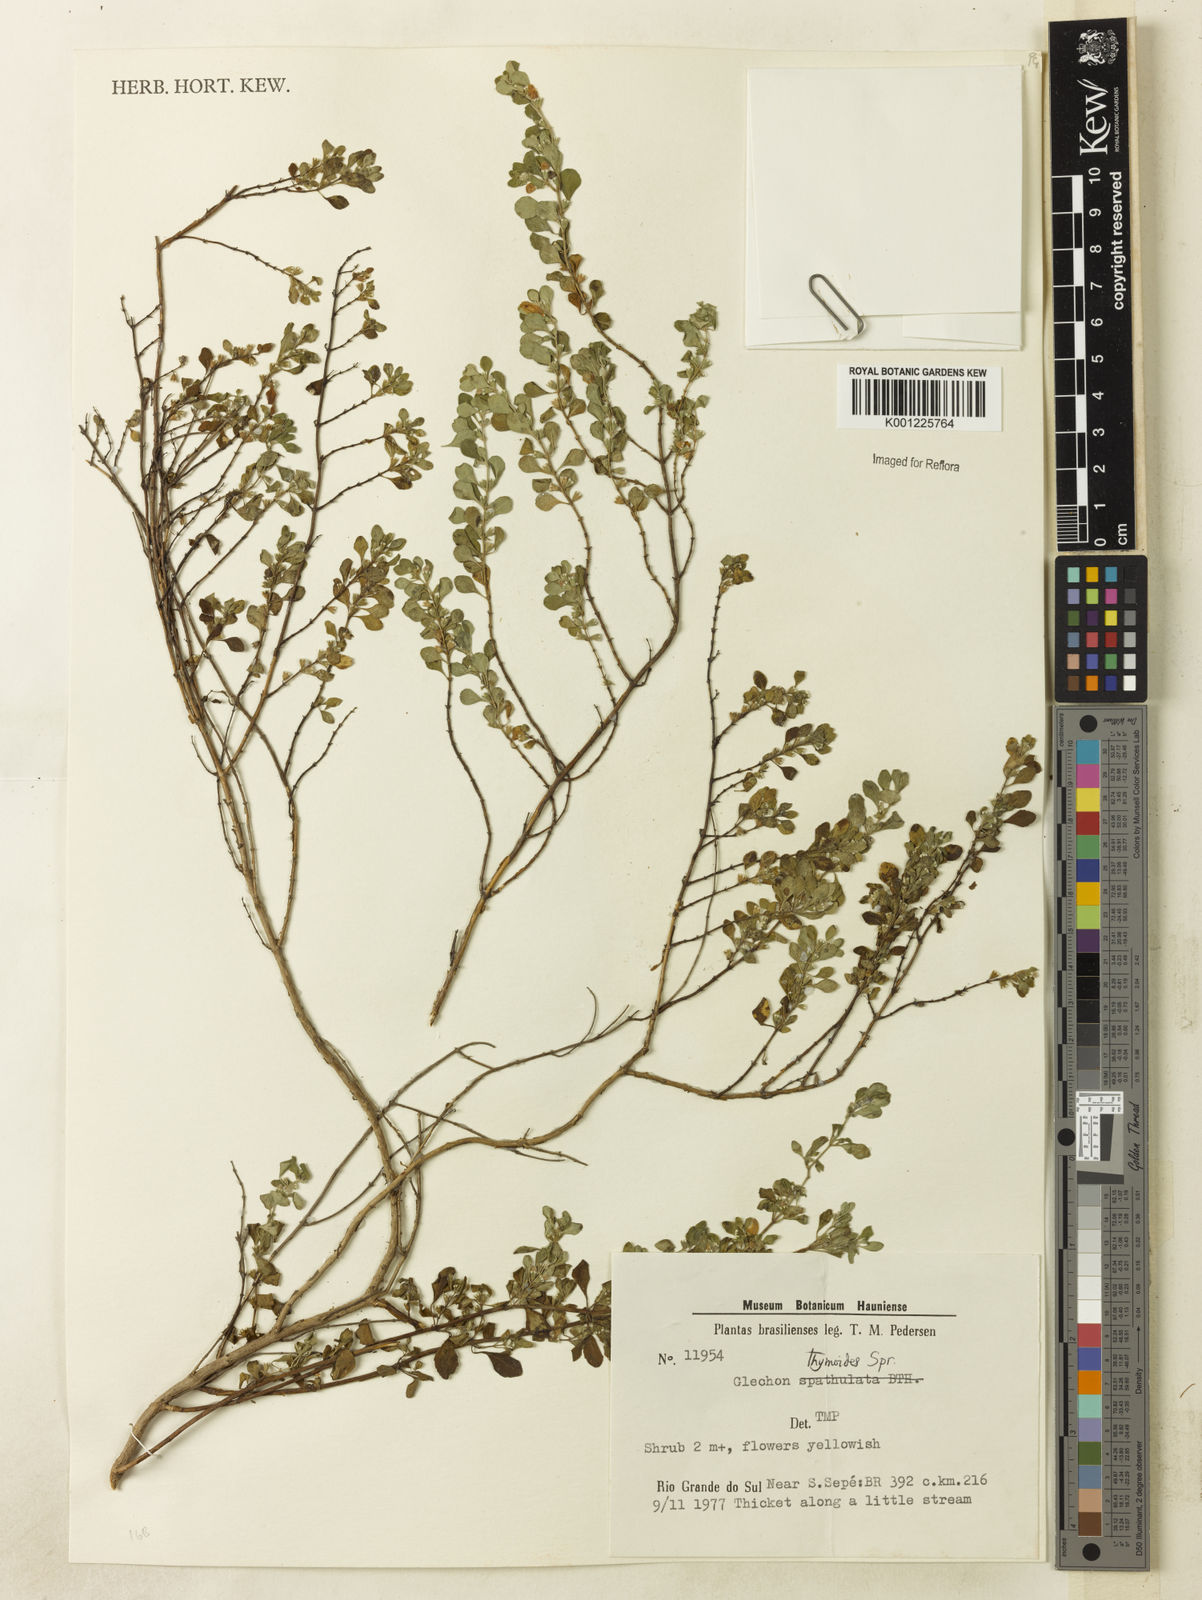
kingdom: Plantae
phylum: Tracheophyta
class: Magnoliopsida
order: Lamiales
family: Lamiaceae
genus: Glechon
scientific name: Glechon thymoides
